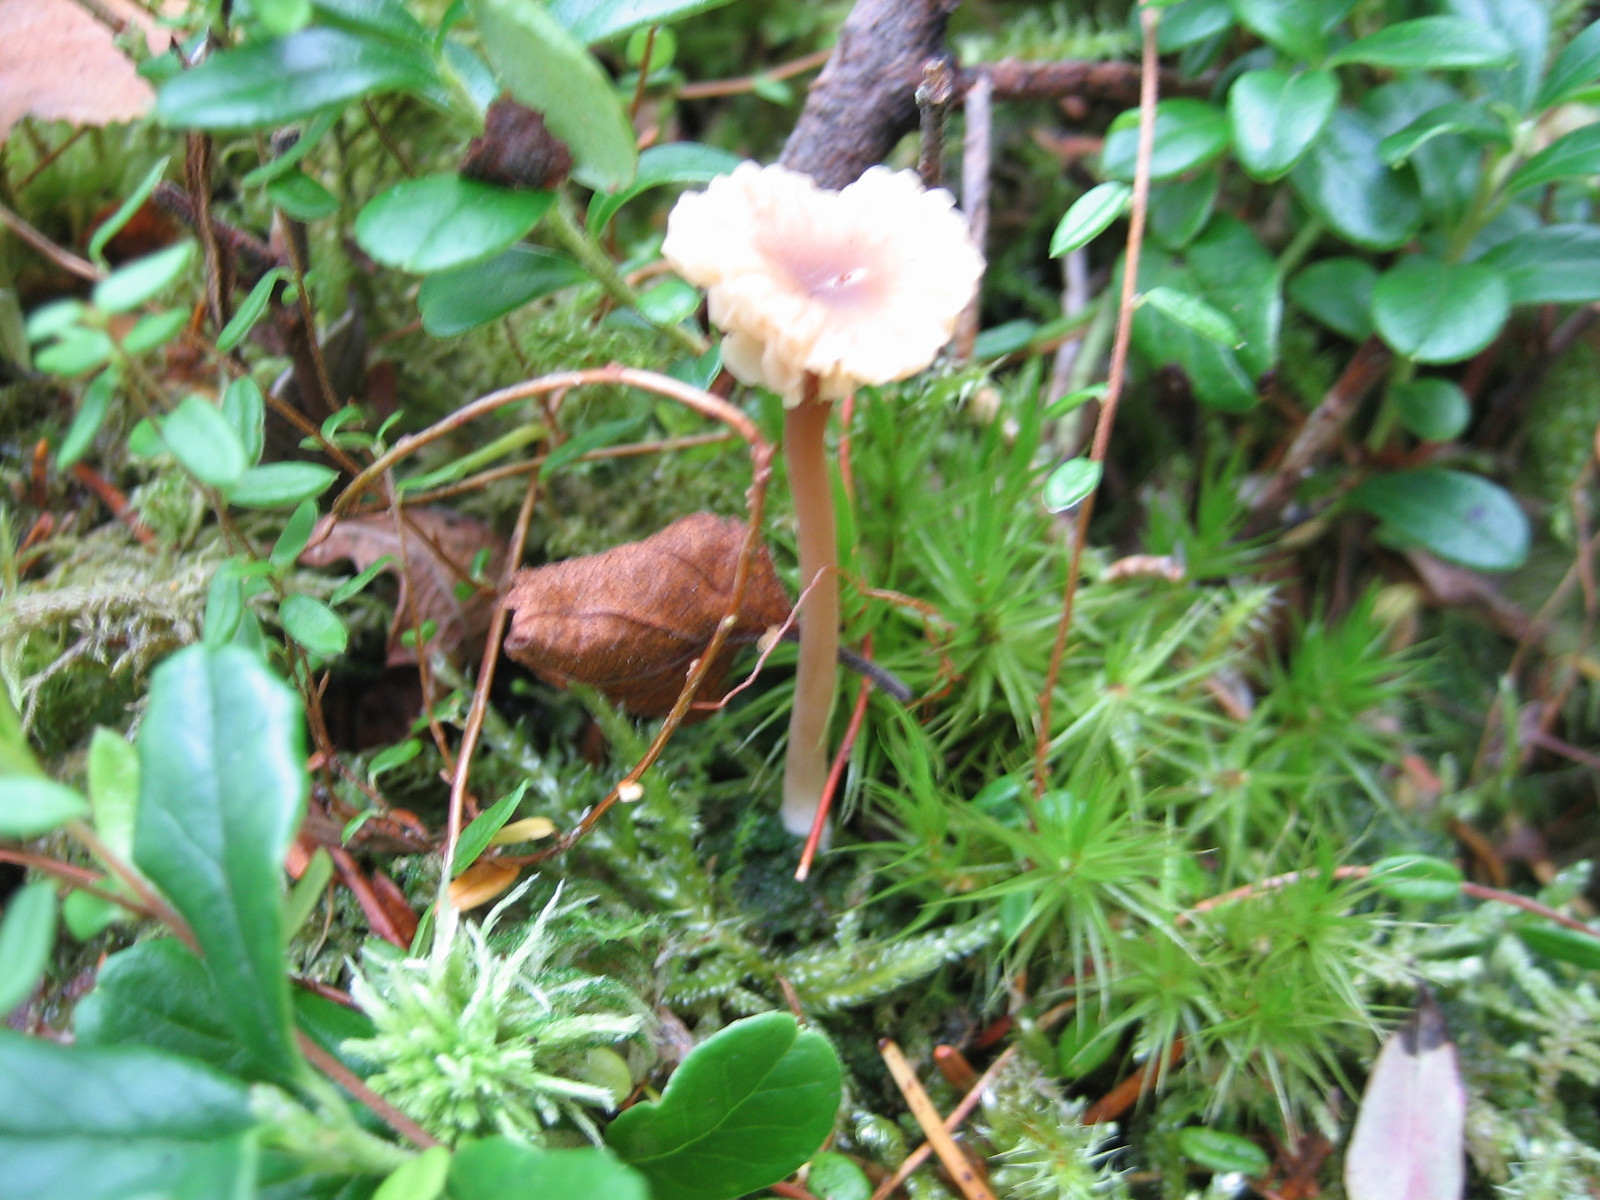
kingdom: Fungi
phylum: Basidiomycota
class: Agaricomycetes
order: Agaricales
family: Hygrophoraceae
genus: Lichenomphalia
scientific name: Lichenomphalia umbellifera
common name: tørve-lavhat
